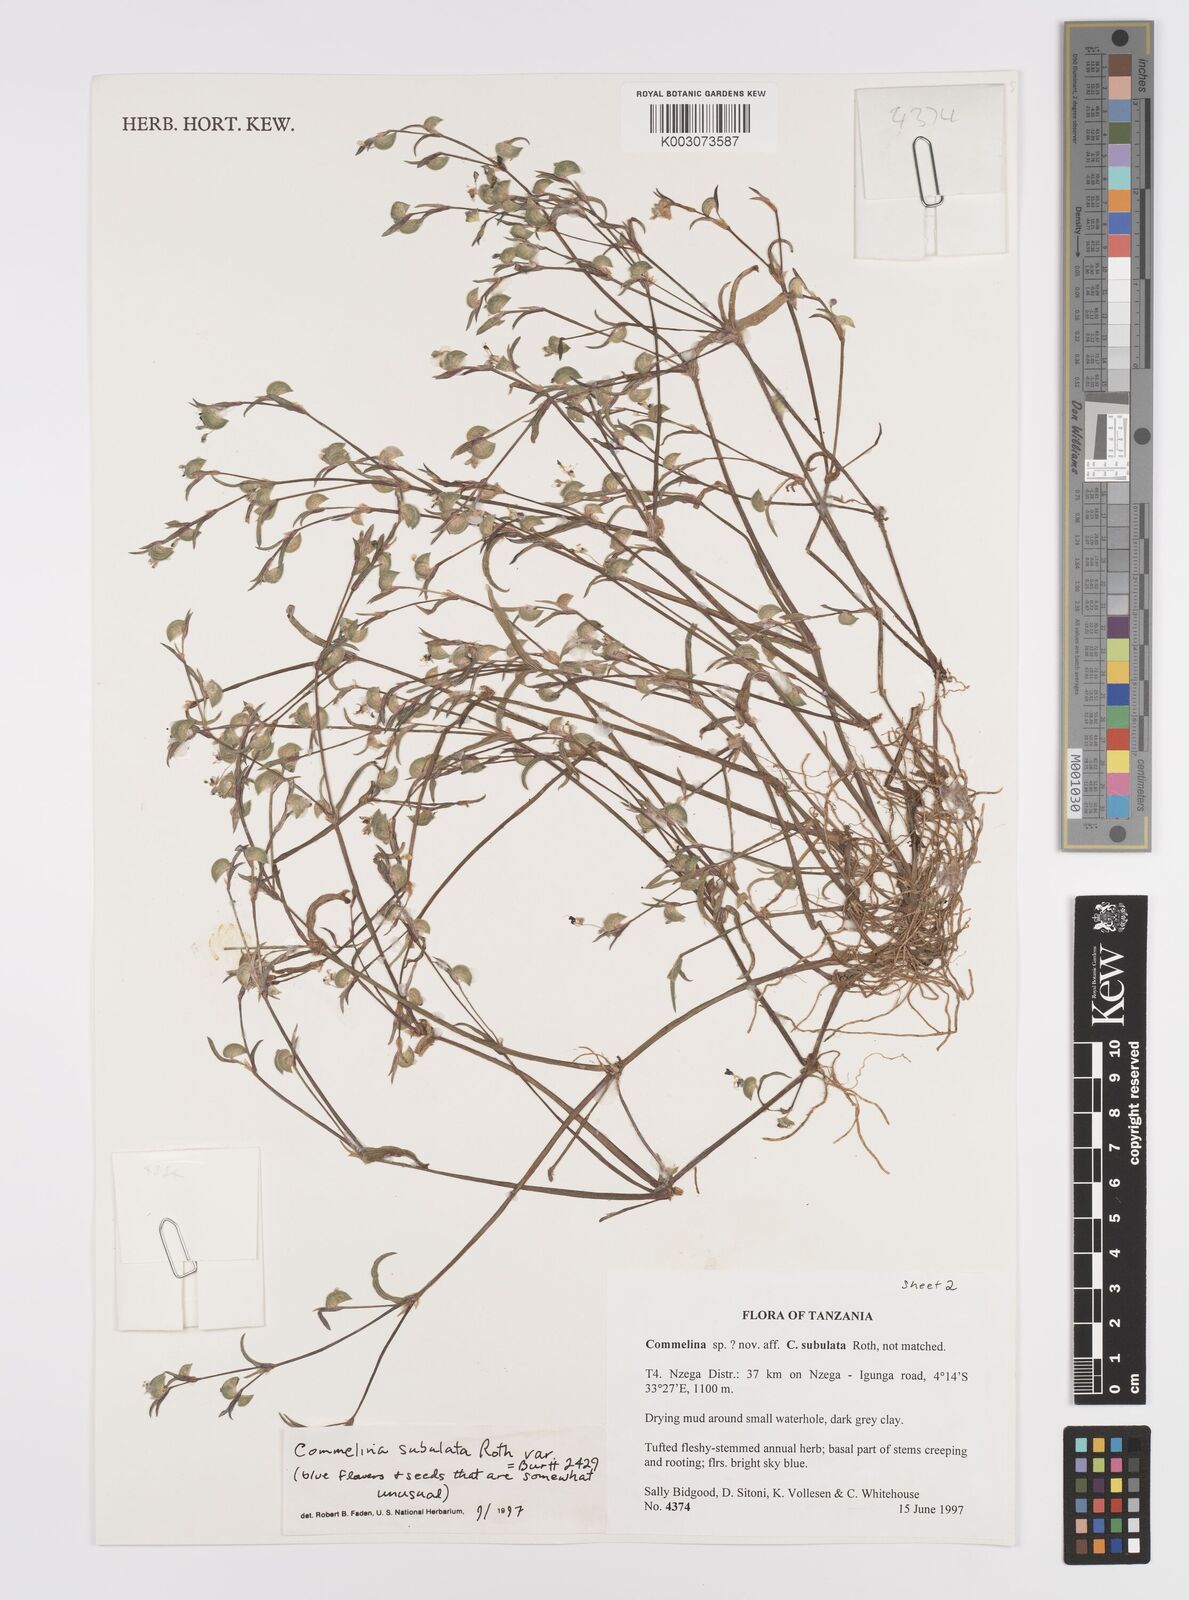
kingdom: Plantae
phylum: Tracheophyta
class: Liliopsida
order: Commelinales
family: Commelinaceae
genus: Commelina
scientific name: Commelina subulata
